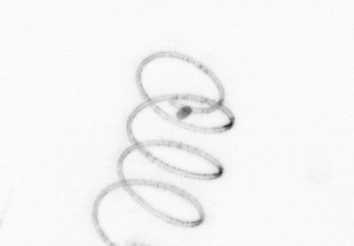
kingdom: Chromista
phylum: Ochrophyta
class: Bacillariophyceae
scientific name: Bacillariophyceae
